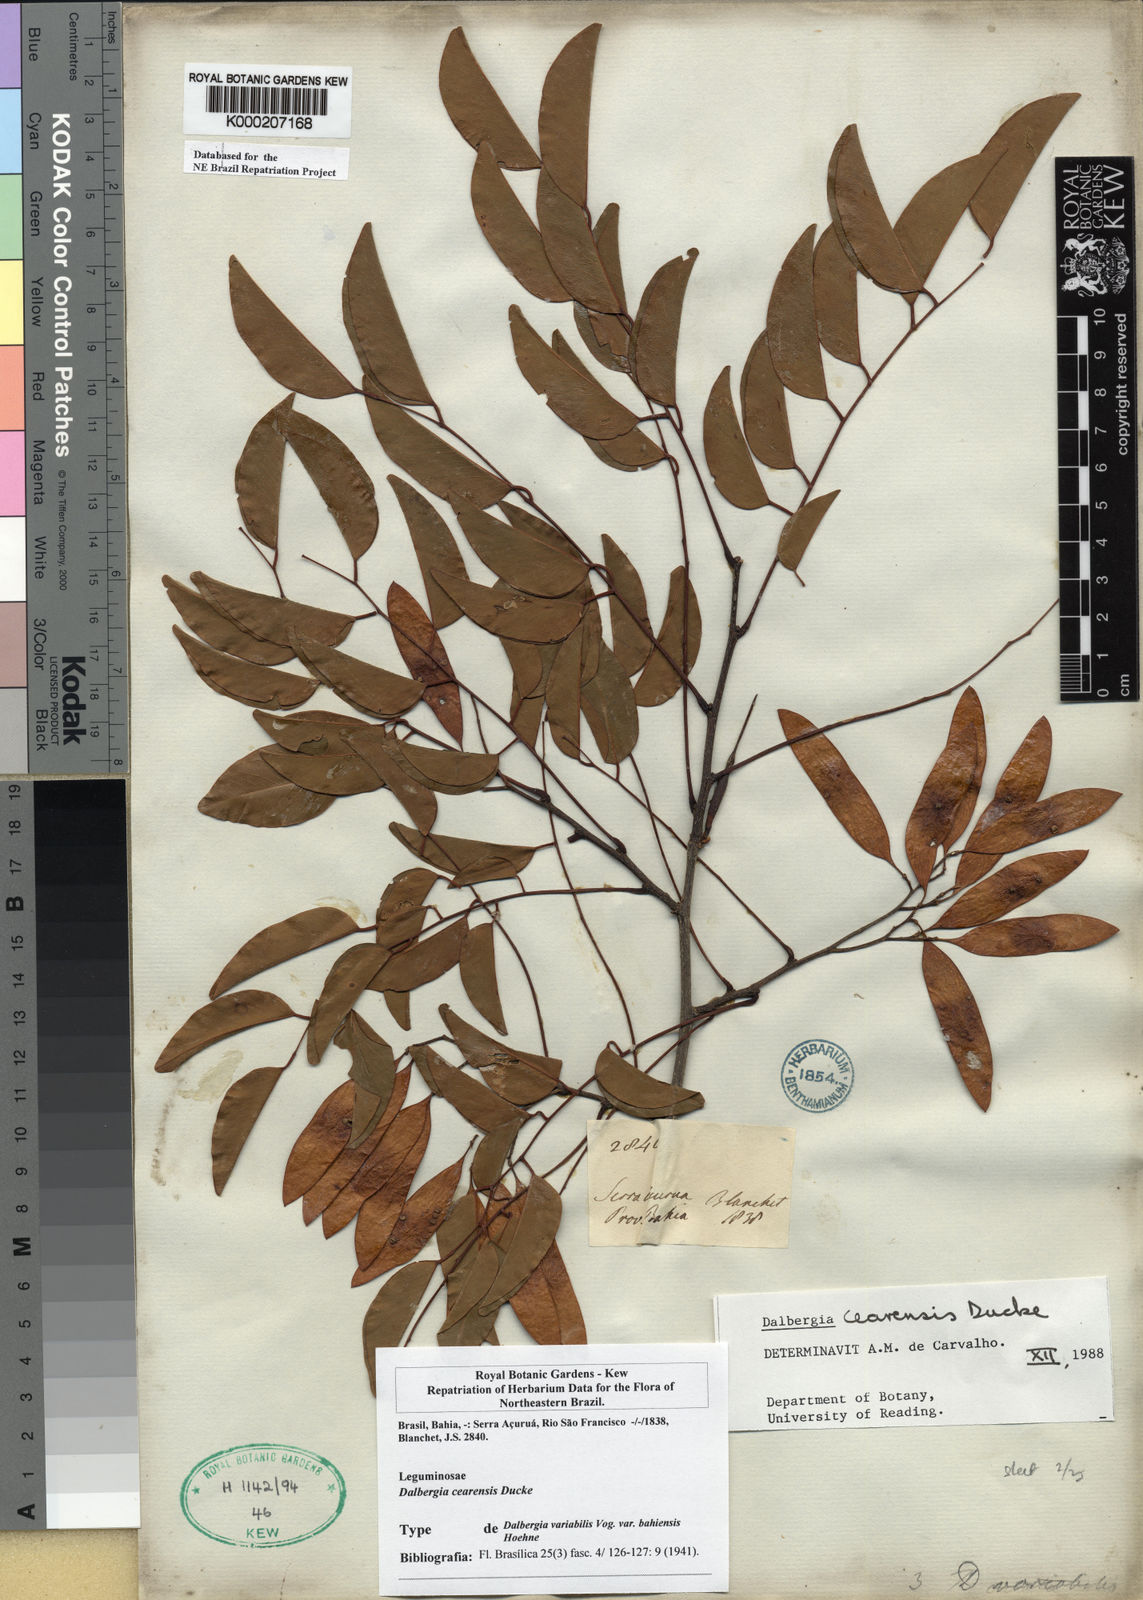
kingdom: Plantae
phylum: Tracheophyta
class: Magnoliopsida
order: Fabales
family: Fabaceae
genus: Dalbergia
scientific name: Dalbergia cearensis
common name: Brazilian-king-wood
